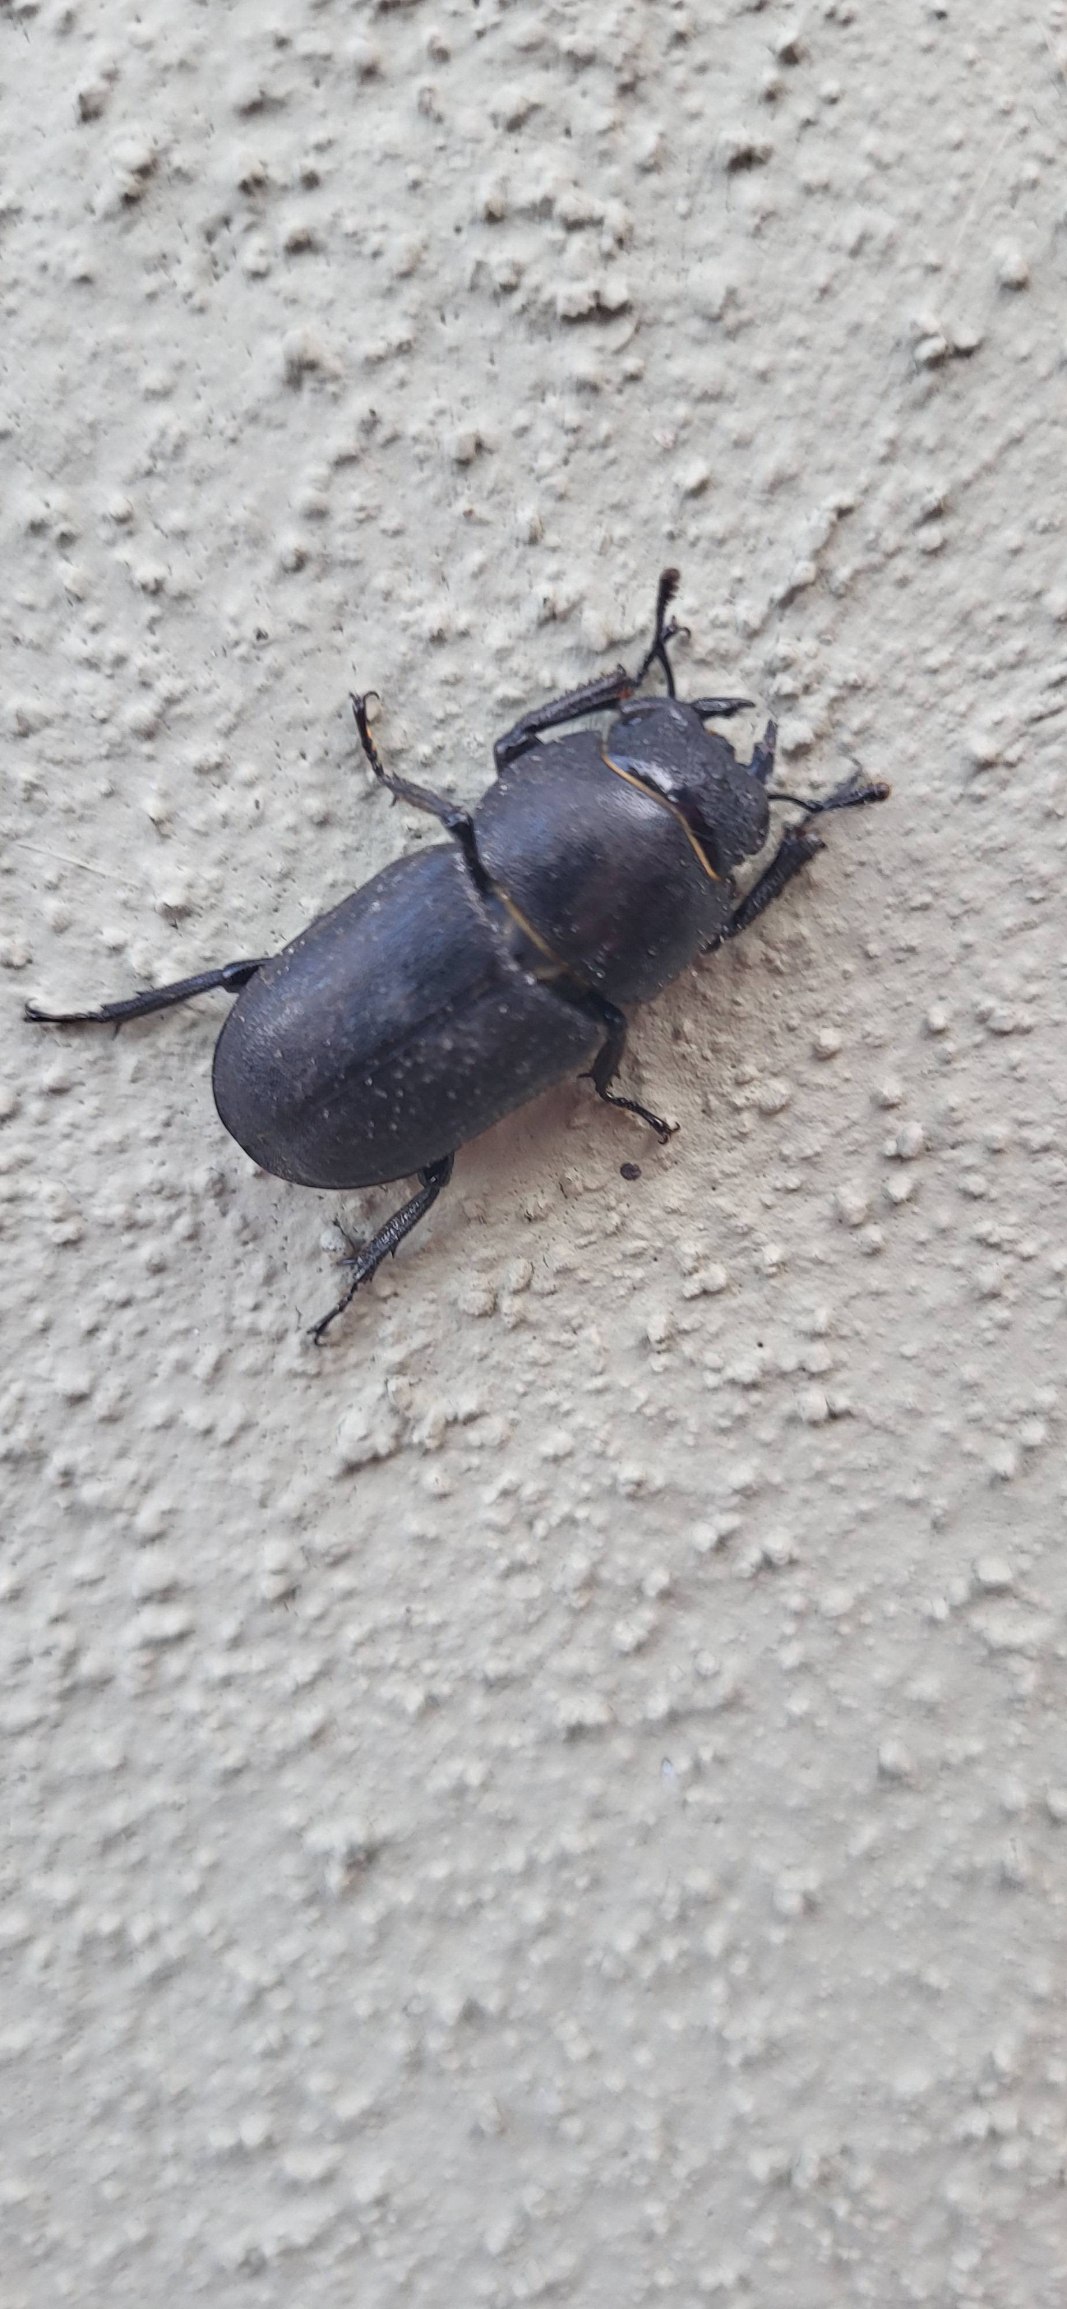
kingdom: Animalia
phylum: Arthropoda
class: Insecta
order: Coleoptera
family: Lucanidae
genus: Dorcus
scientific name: Dorcus parallelipipedus
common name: Bøghjort
